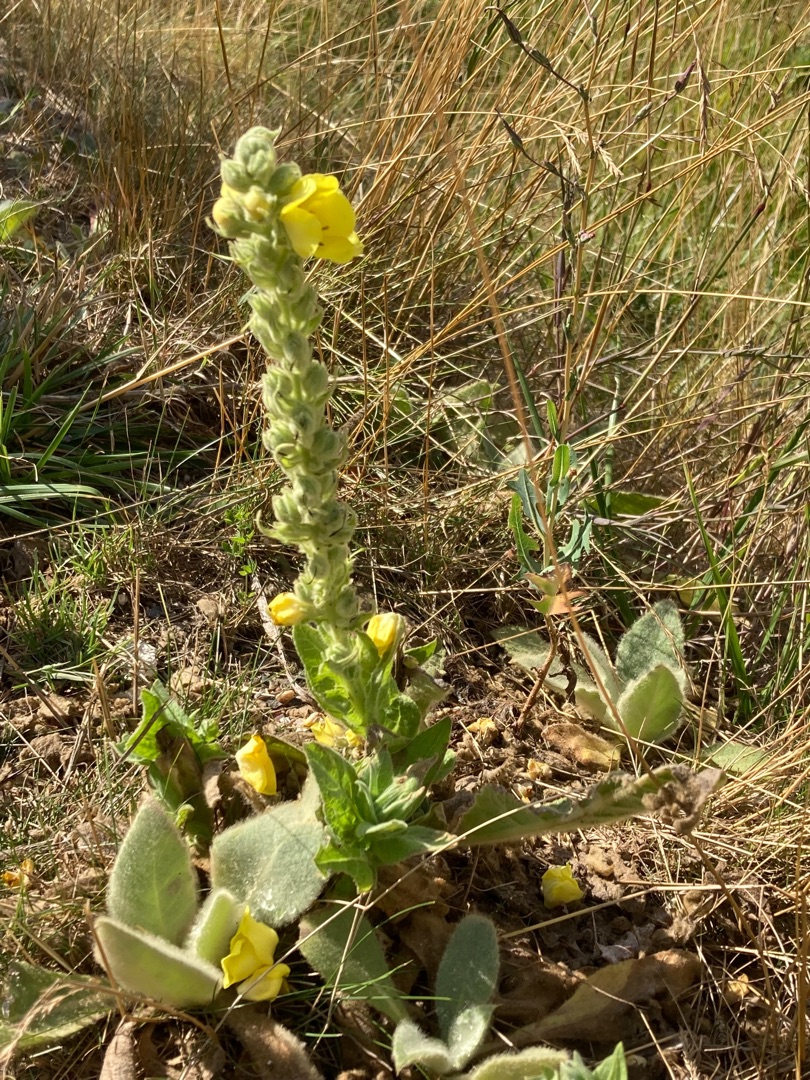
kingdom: Plantae
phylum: Tracheophyta
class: Magnoliopsida
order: Lamiales
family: Scrophulariaceae
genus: Verbascum
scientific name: Verbascum thapsus
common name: Filtbladet kongelys
